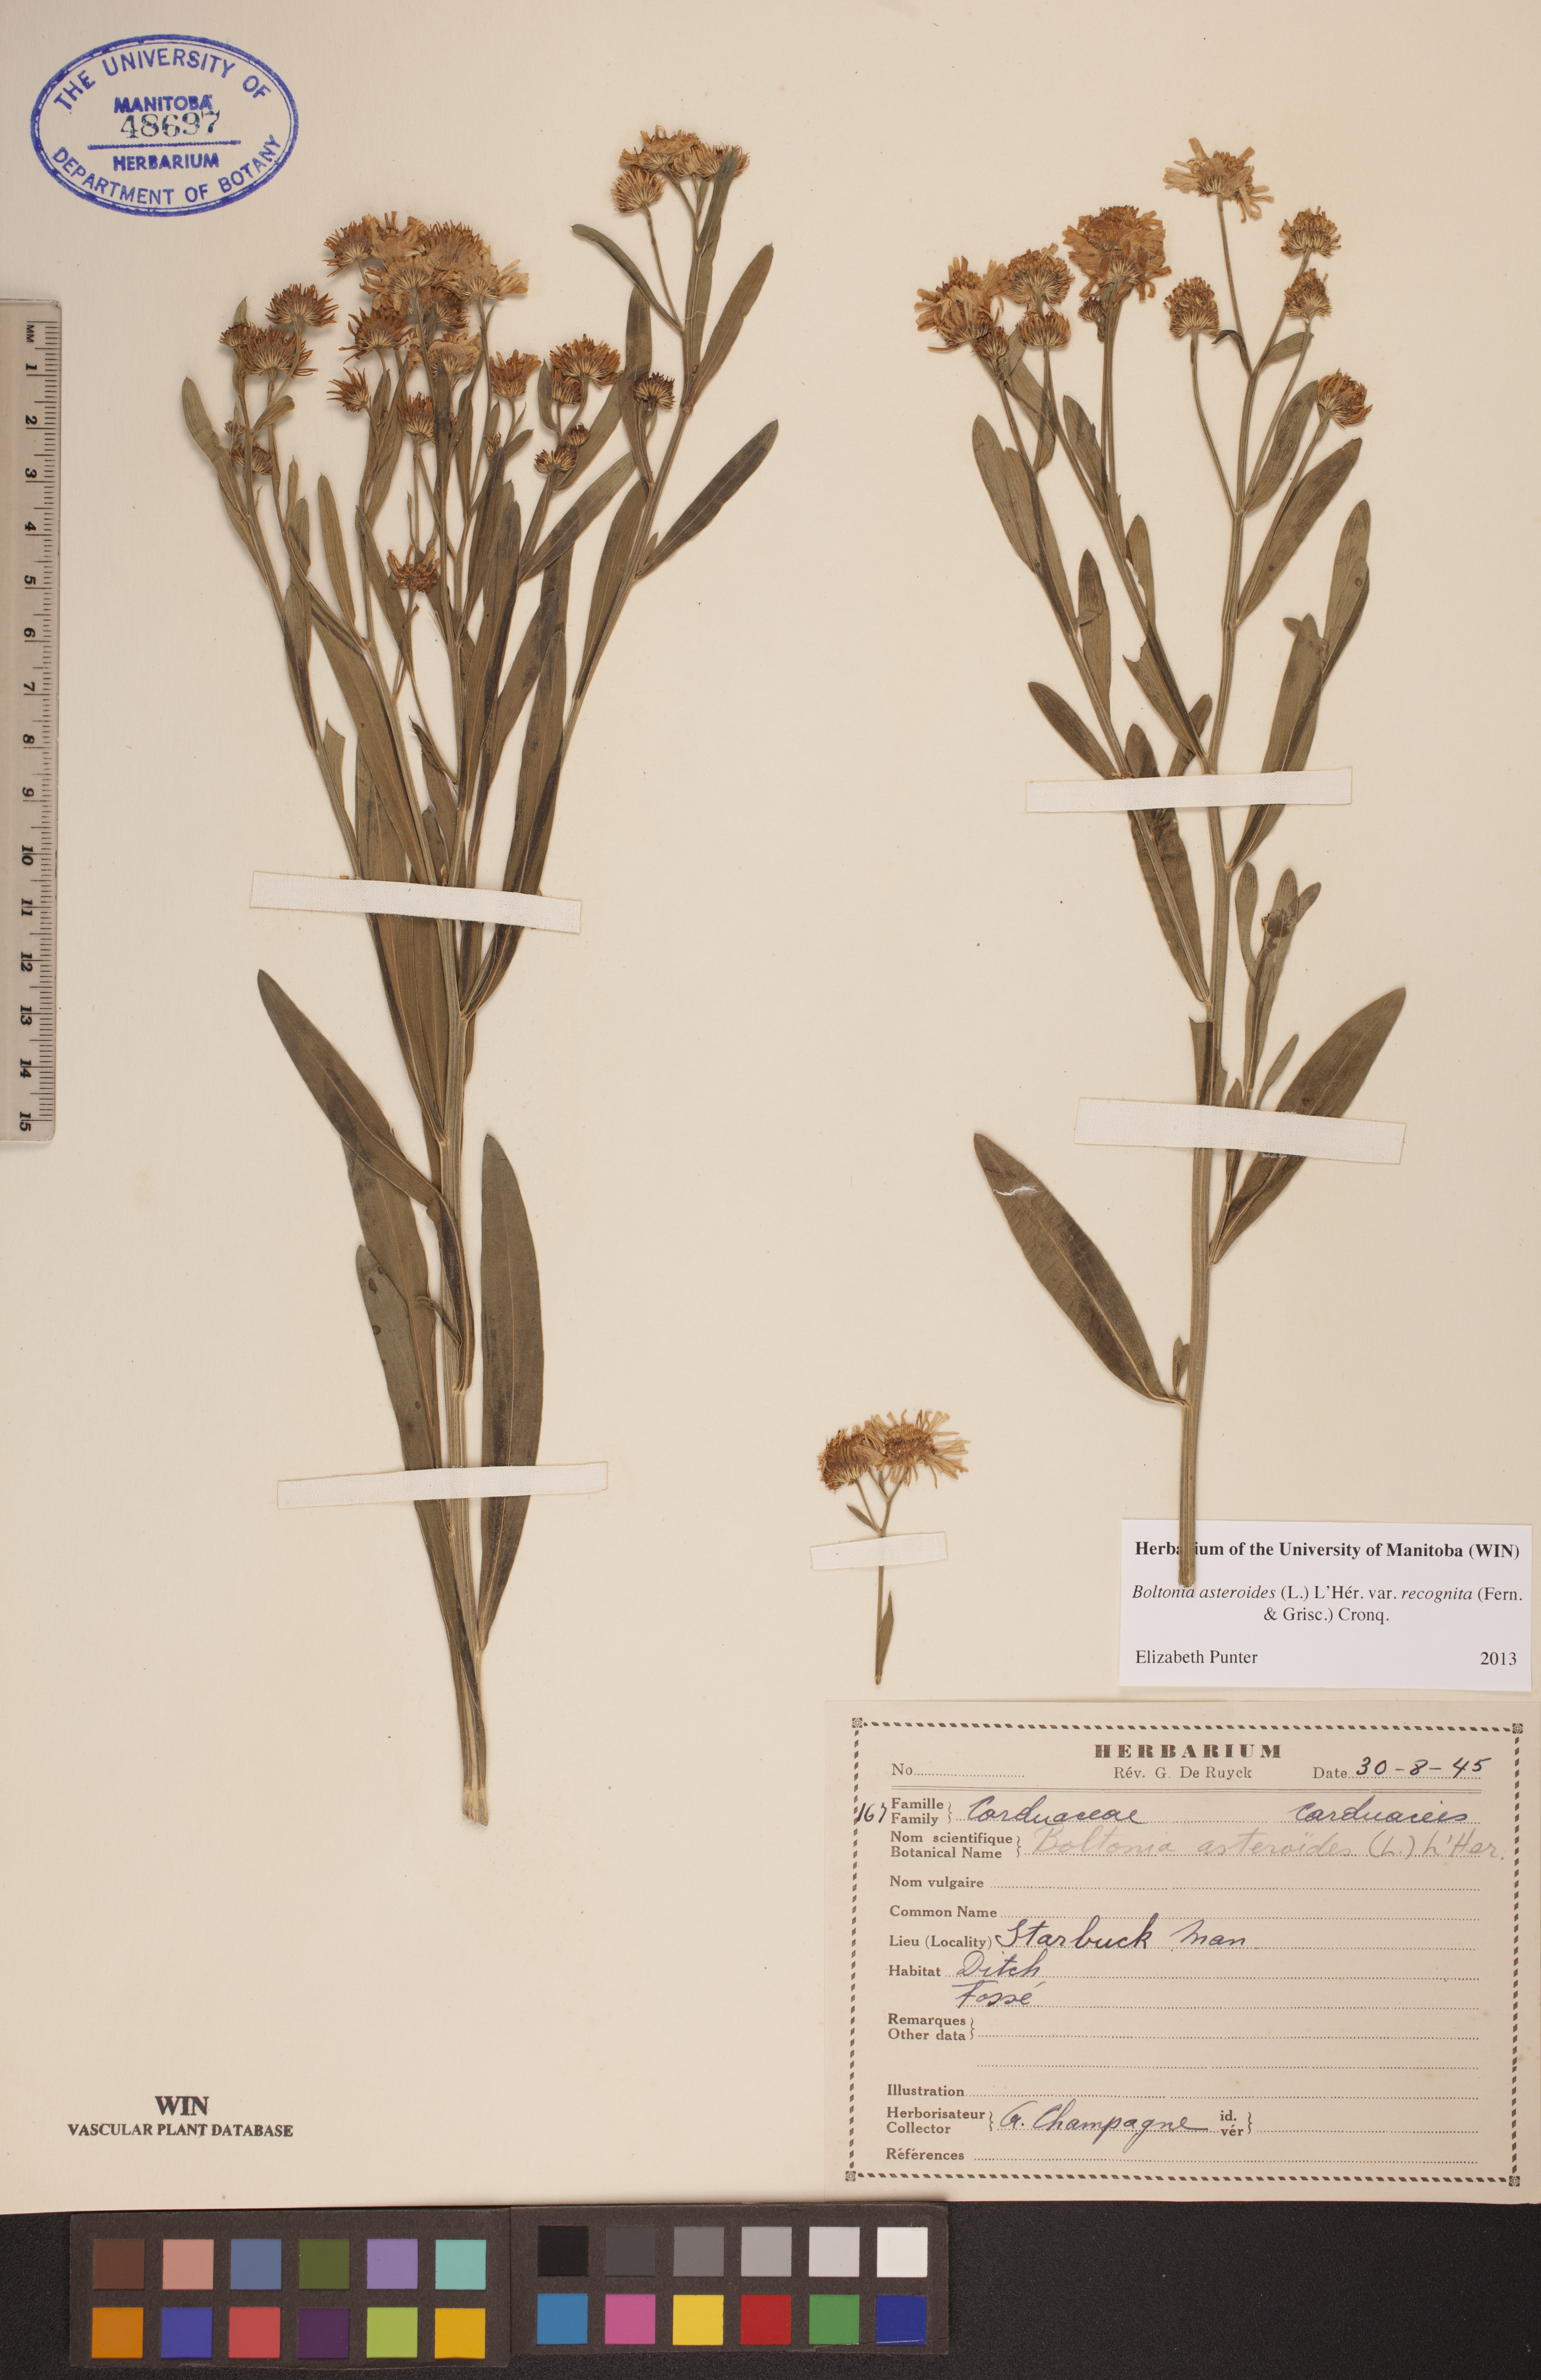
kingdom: Plantae
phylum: Tracheophyta
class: Magnoliopsida
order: Asterales
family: Asteraceae
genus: Boltonia
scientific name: Boltonia asteroides
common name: False chamomile
